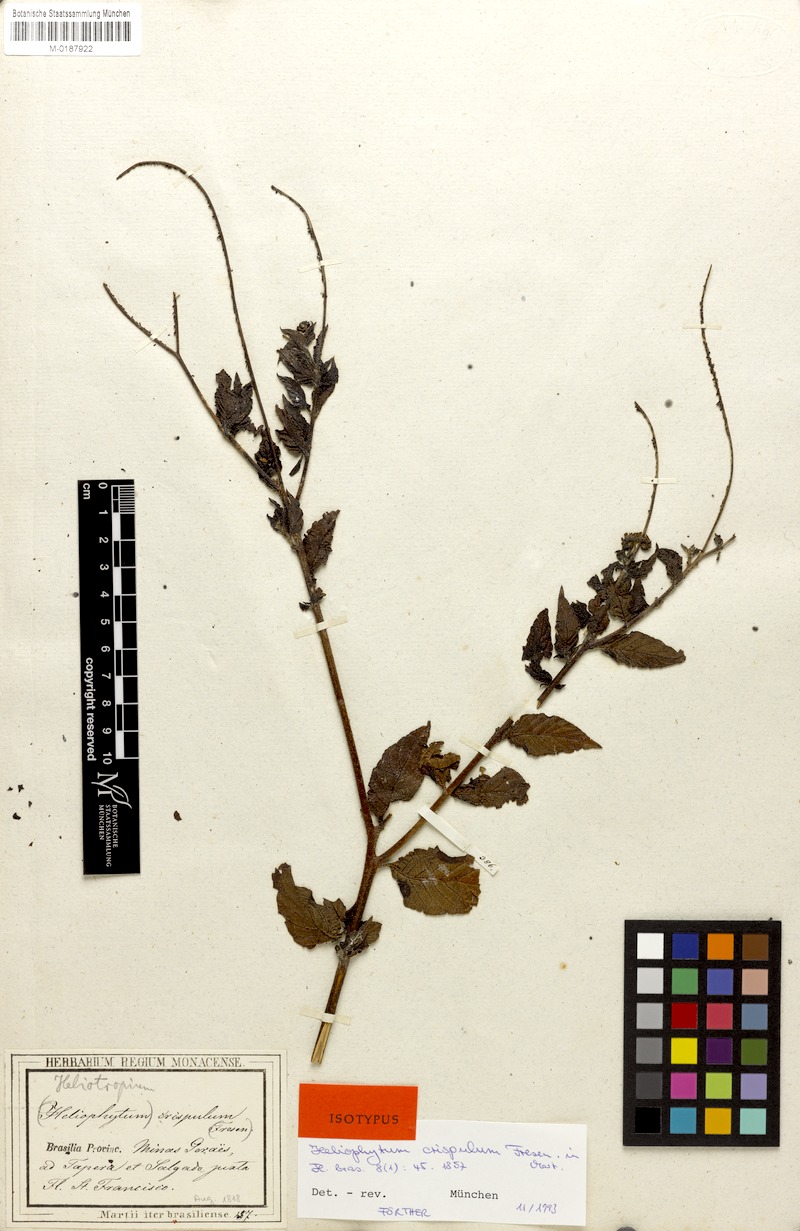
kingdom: Plantae
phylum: Tracheophyta
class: Magnoliopsida
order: Boraginales
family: Heliotropiaceae
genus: Heliotropium
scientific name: Heliotropium angiospermum
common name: Eye bright
